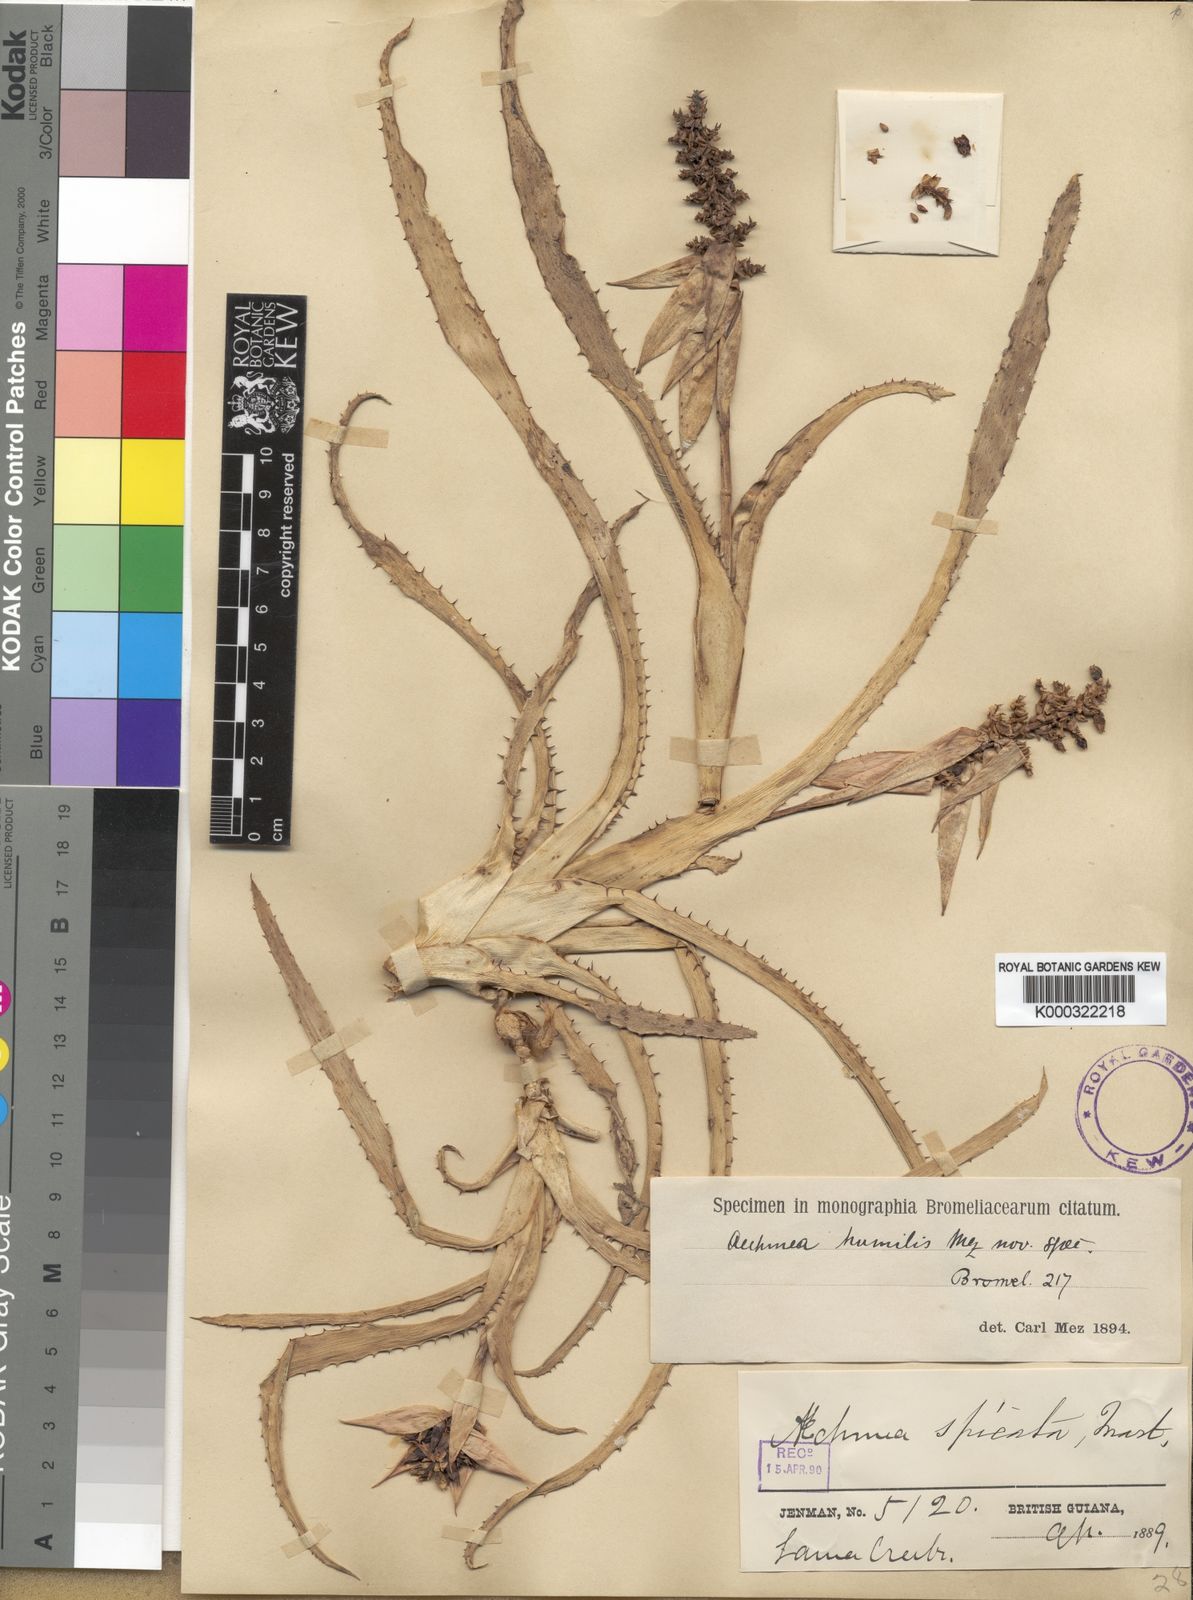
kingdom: Plantae
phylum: Tracheophyta
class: Liliopsida
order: Poales
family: Bromeliaceae
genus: Aechmea
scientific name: Aechmea mertensii
